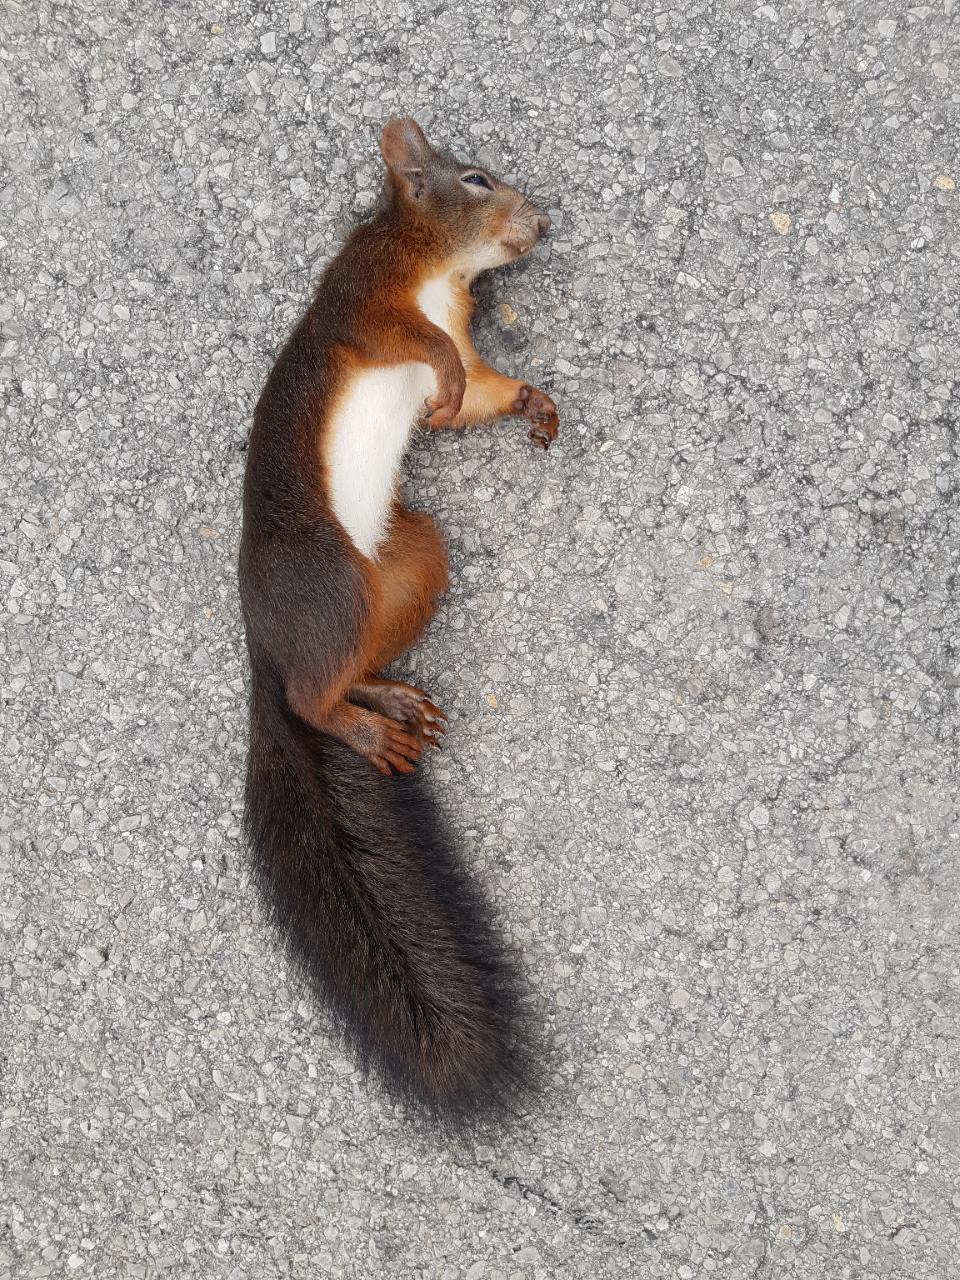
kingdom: Animalia
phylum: Chordata
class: Mammalia
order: Rodentia
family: Sciuridae
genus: Sciurus
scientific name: Sciurus vulgaris
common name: Eurasian red squirrel
